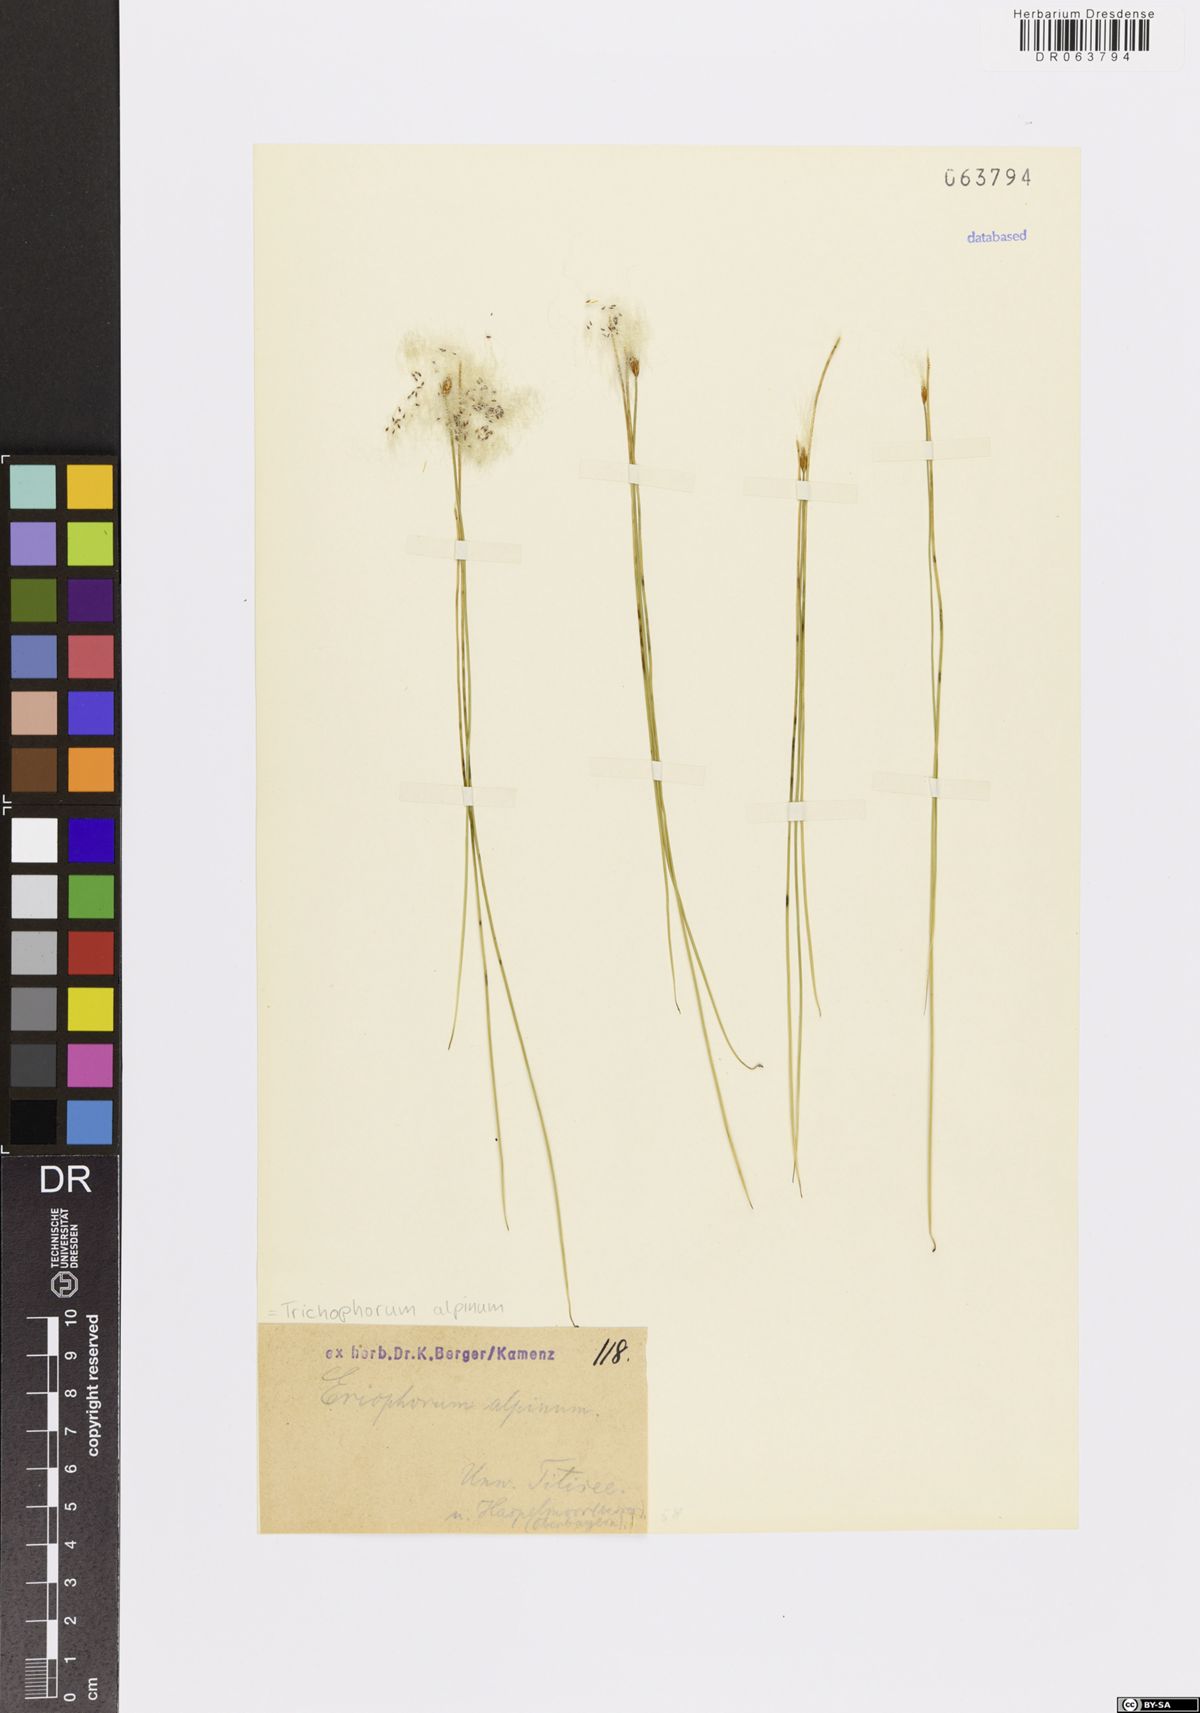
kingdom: Plantae
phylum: Tracheophyta
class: Liliopsida
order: Poales
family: Cyperaceae
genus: Trichophorum
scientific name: Trichophorum alpinum
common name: Alpine bulrush
